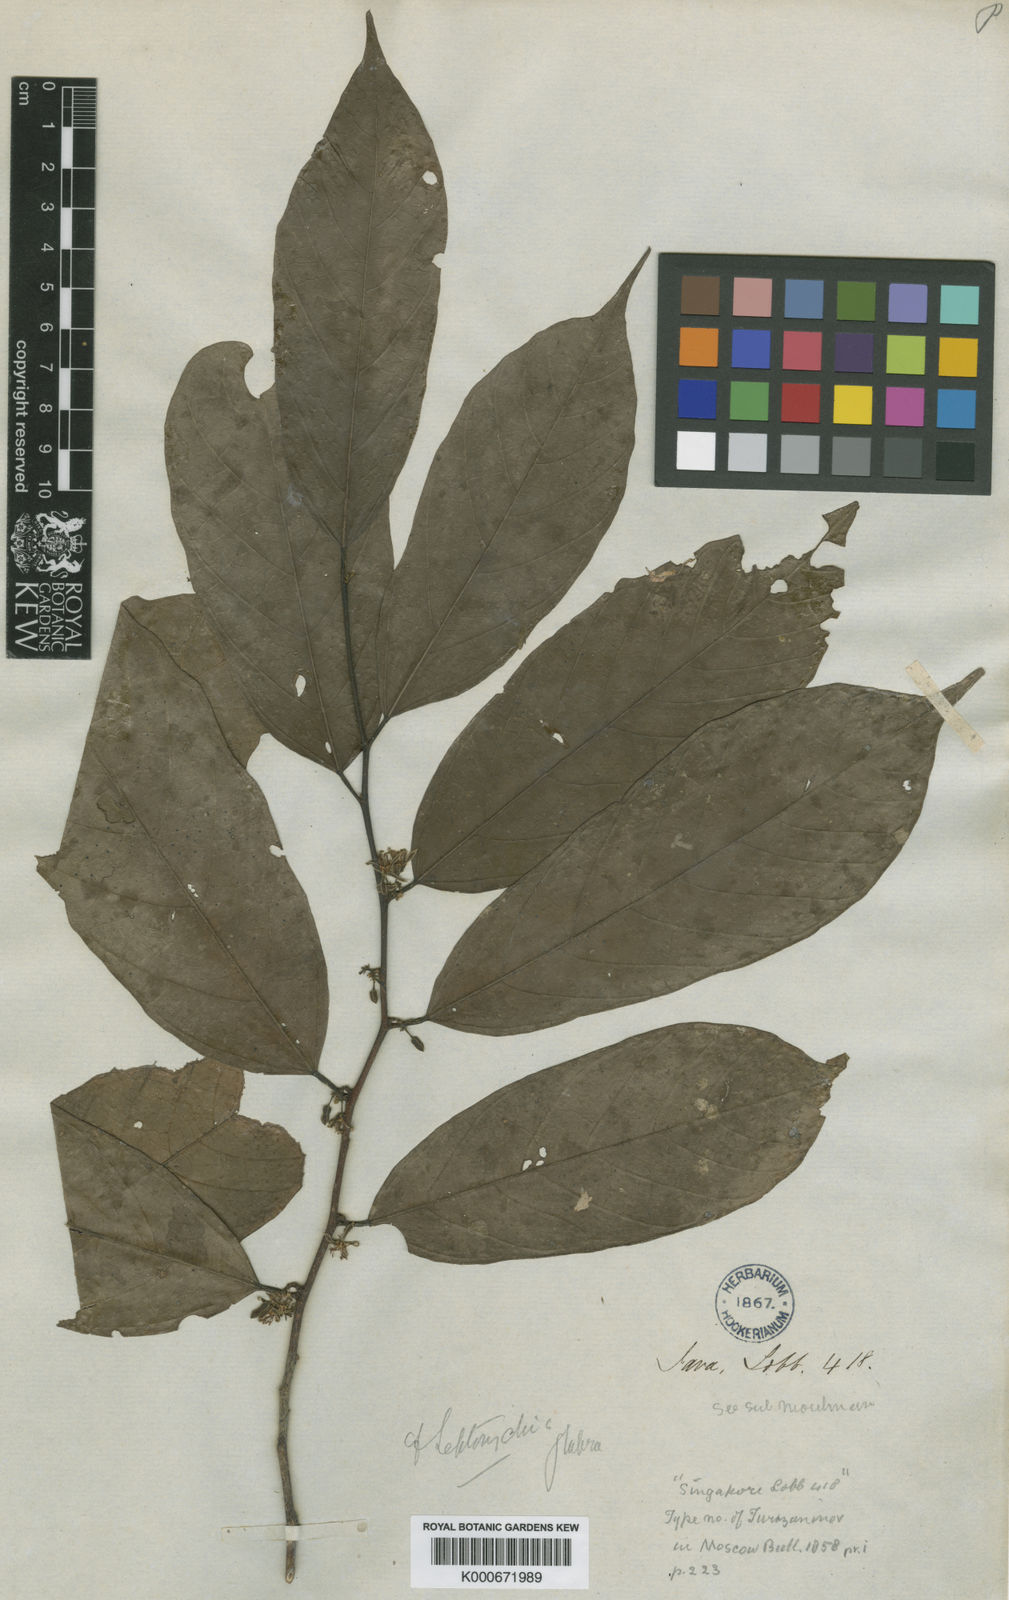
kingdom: Plantae
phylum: Tracheophyta
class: Magnoliopsida
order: Malvales
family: Malvaceae
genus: Leptonychia
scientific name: Leptonychia caudata
